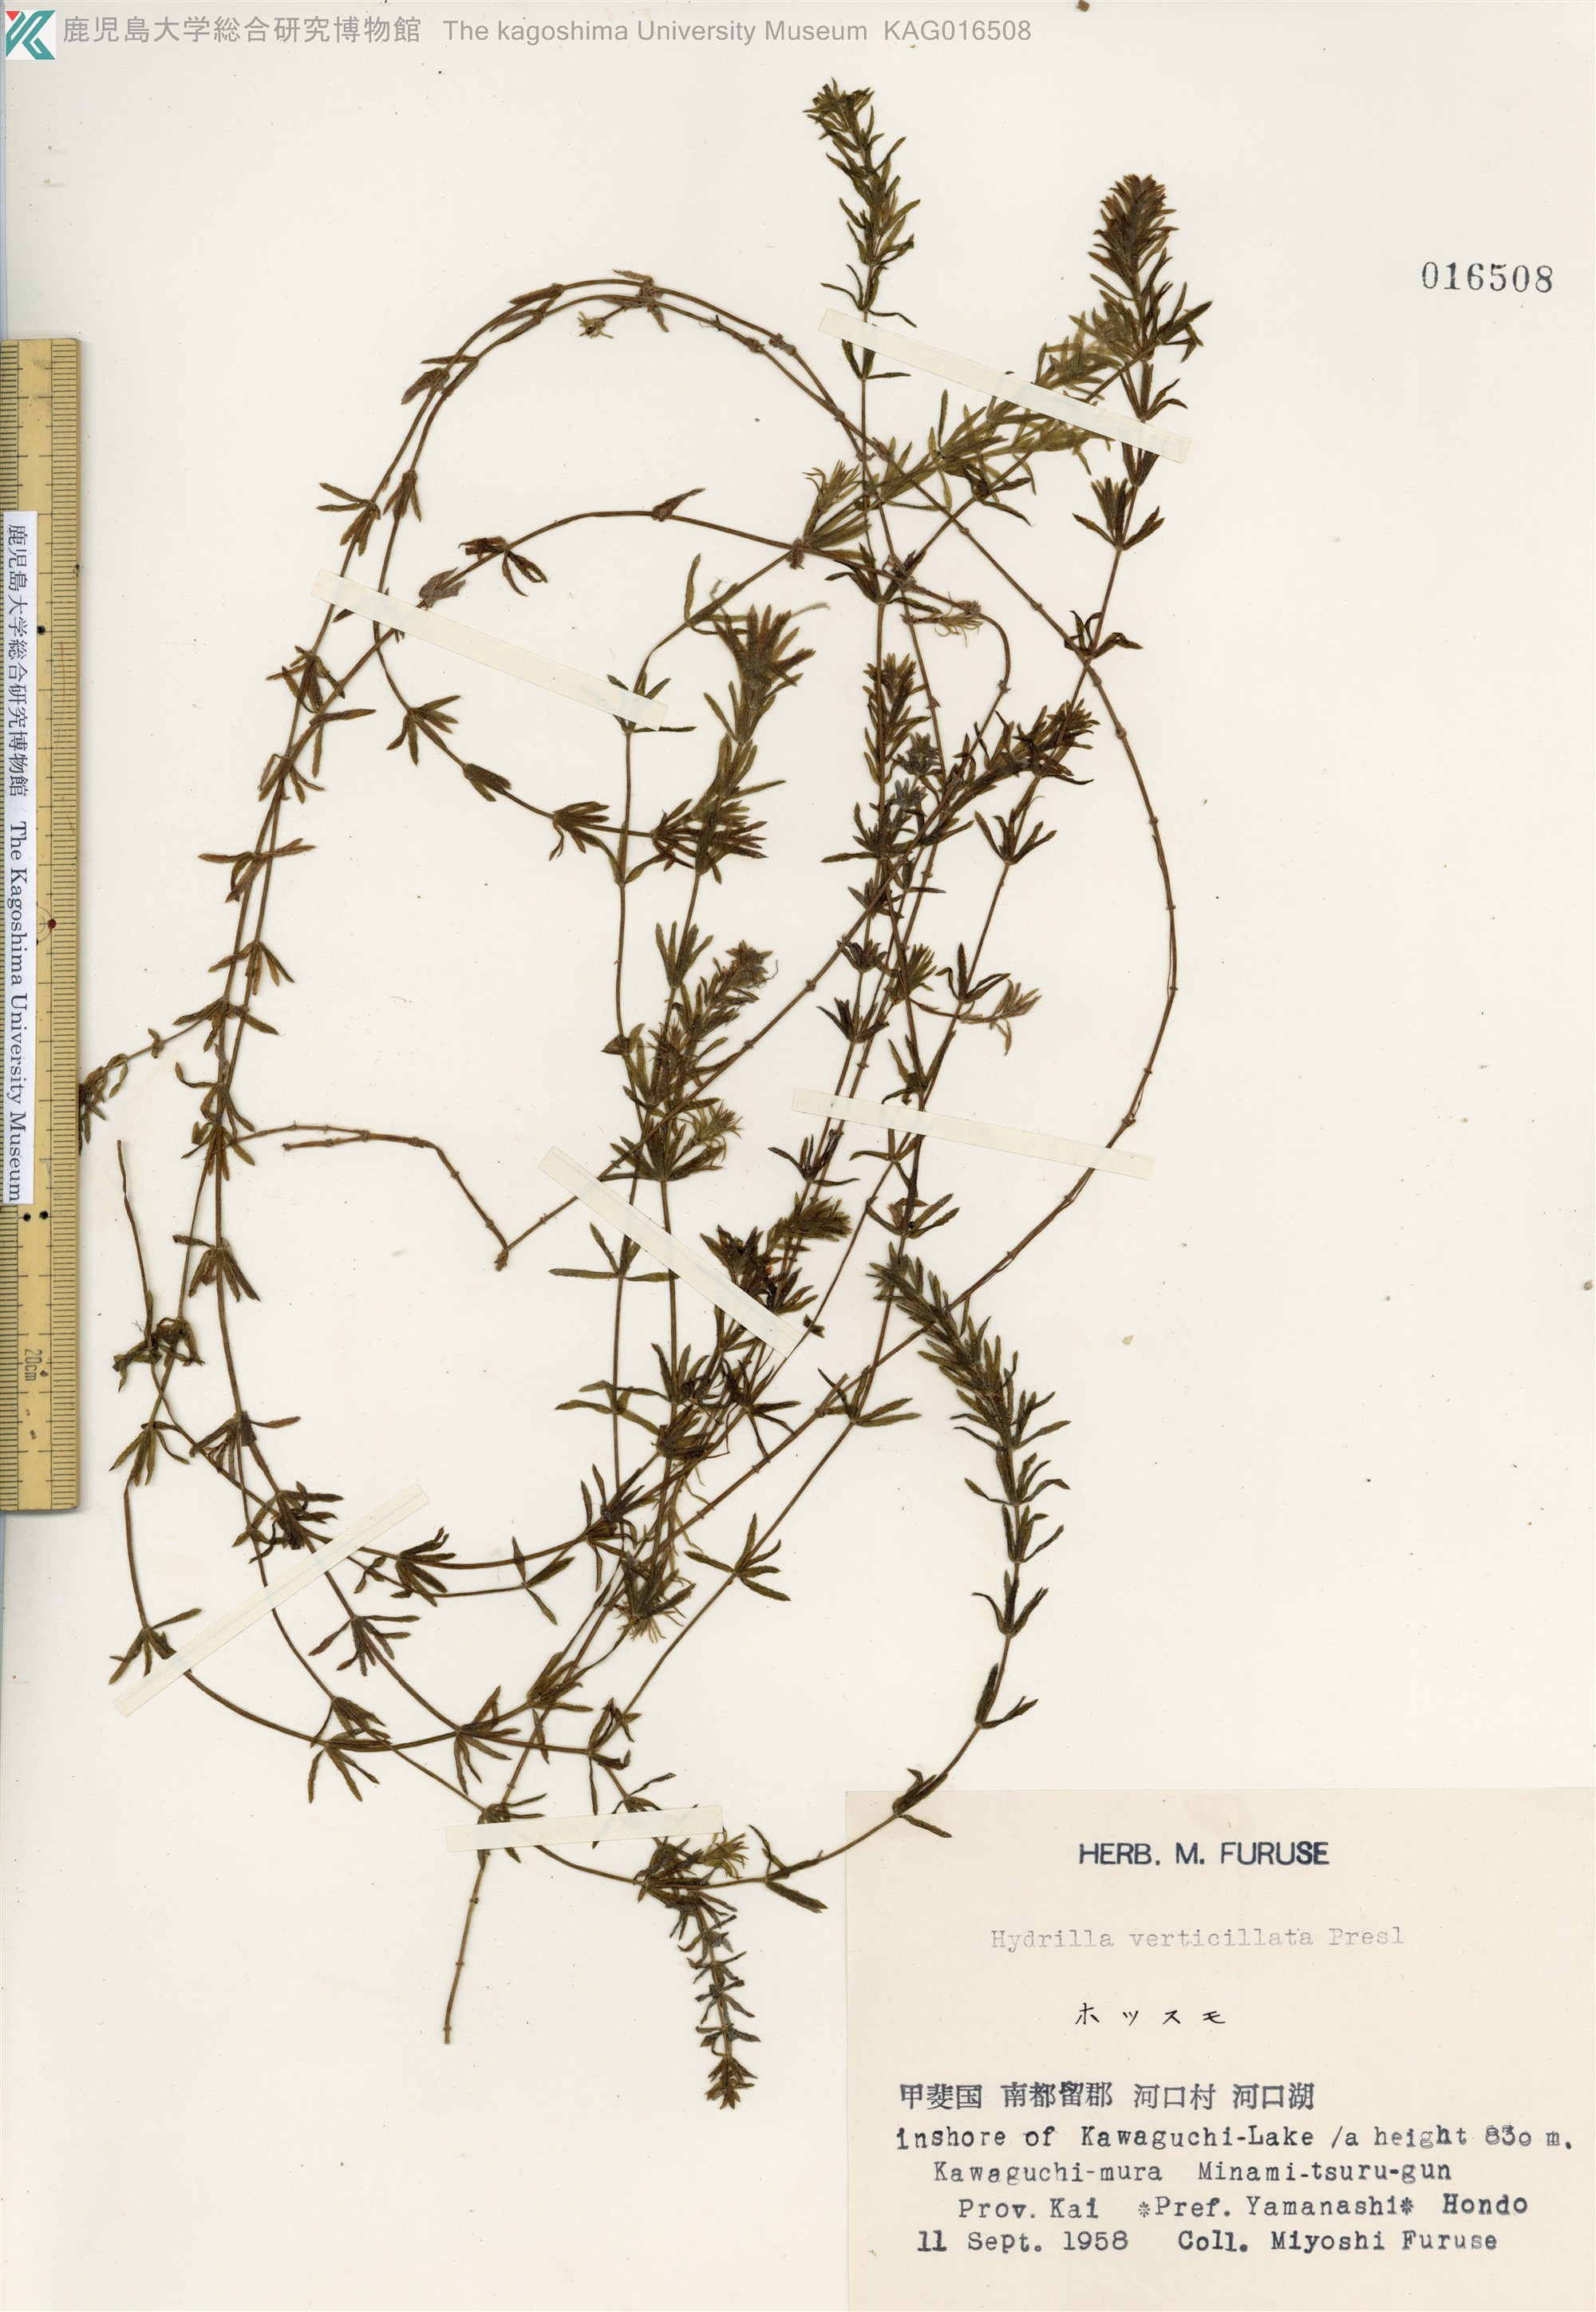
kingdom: Plantae
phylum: Tracheophyta
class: Liliopsida
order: Alismatales
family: Hydrocharitaceae
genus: Hydrilla
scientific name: Hydrilla verticillata
